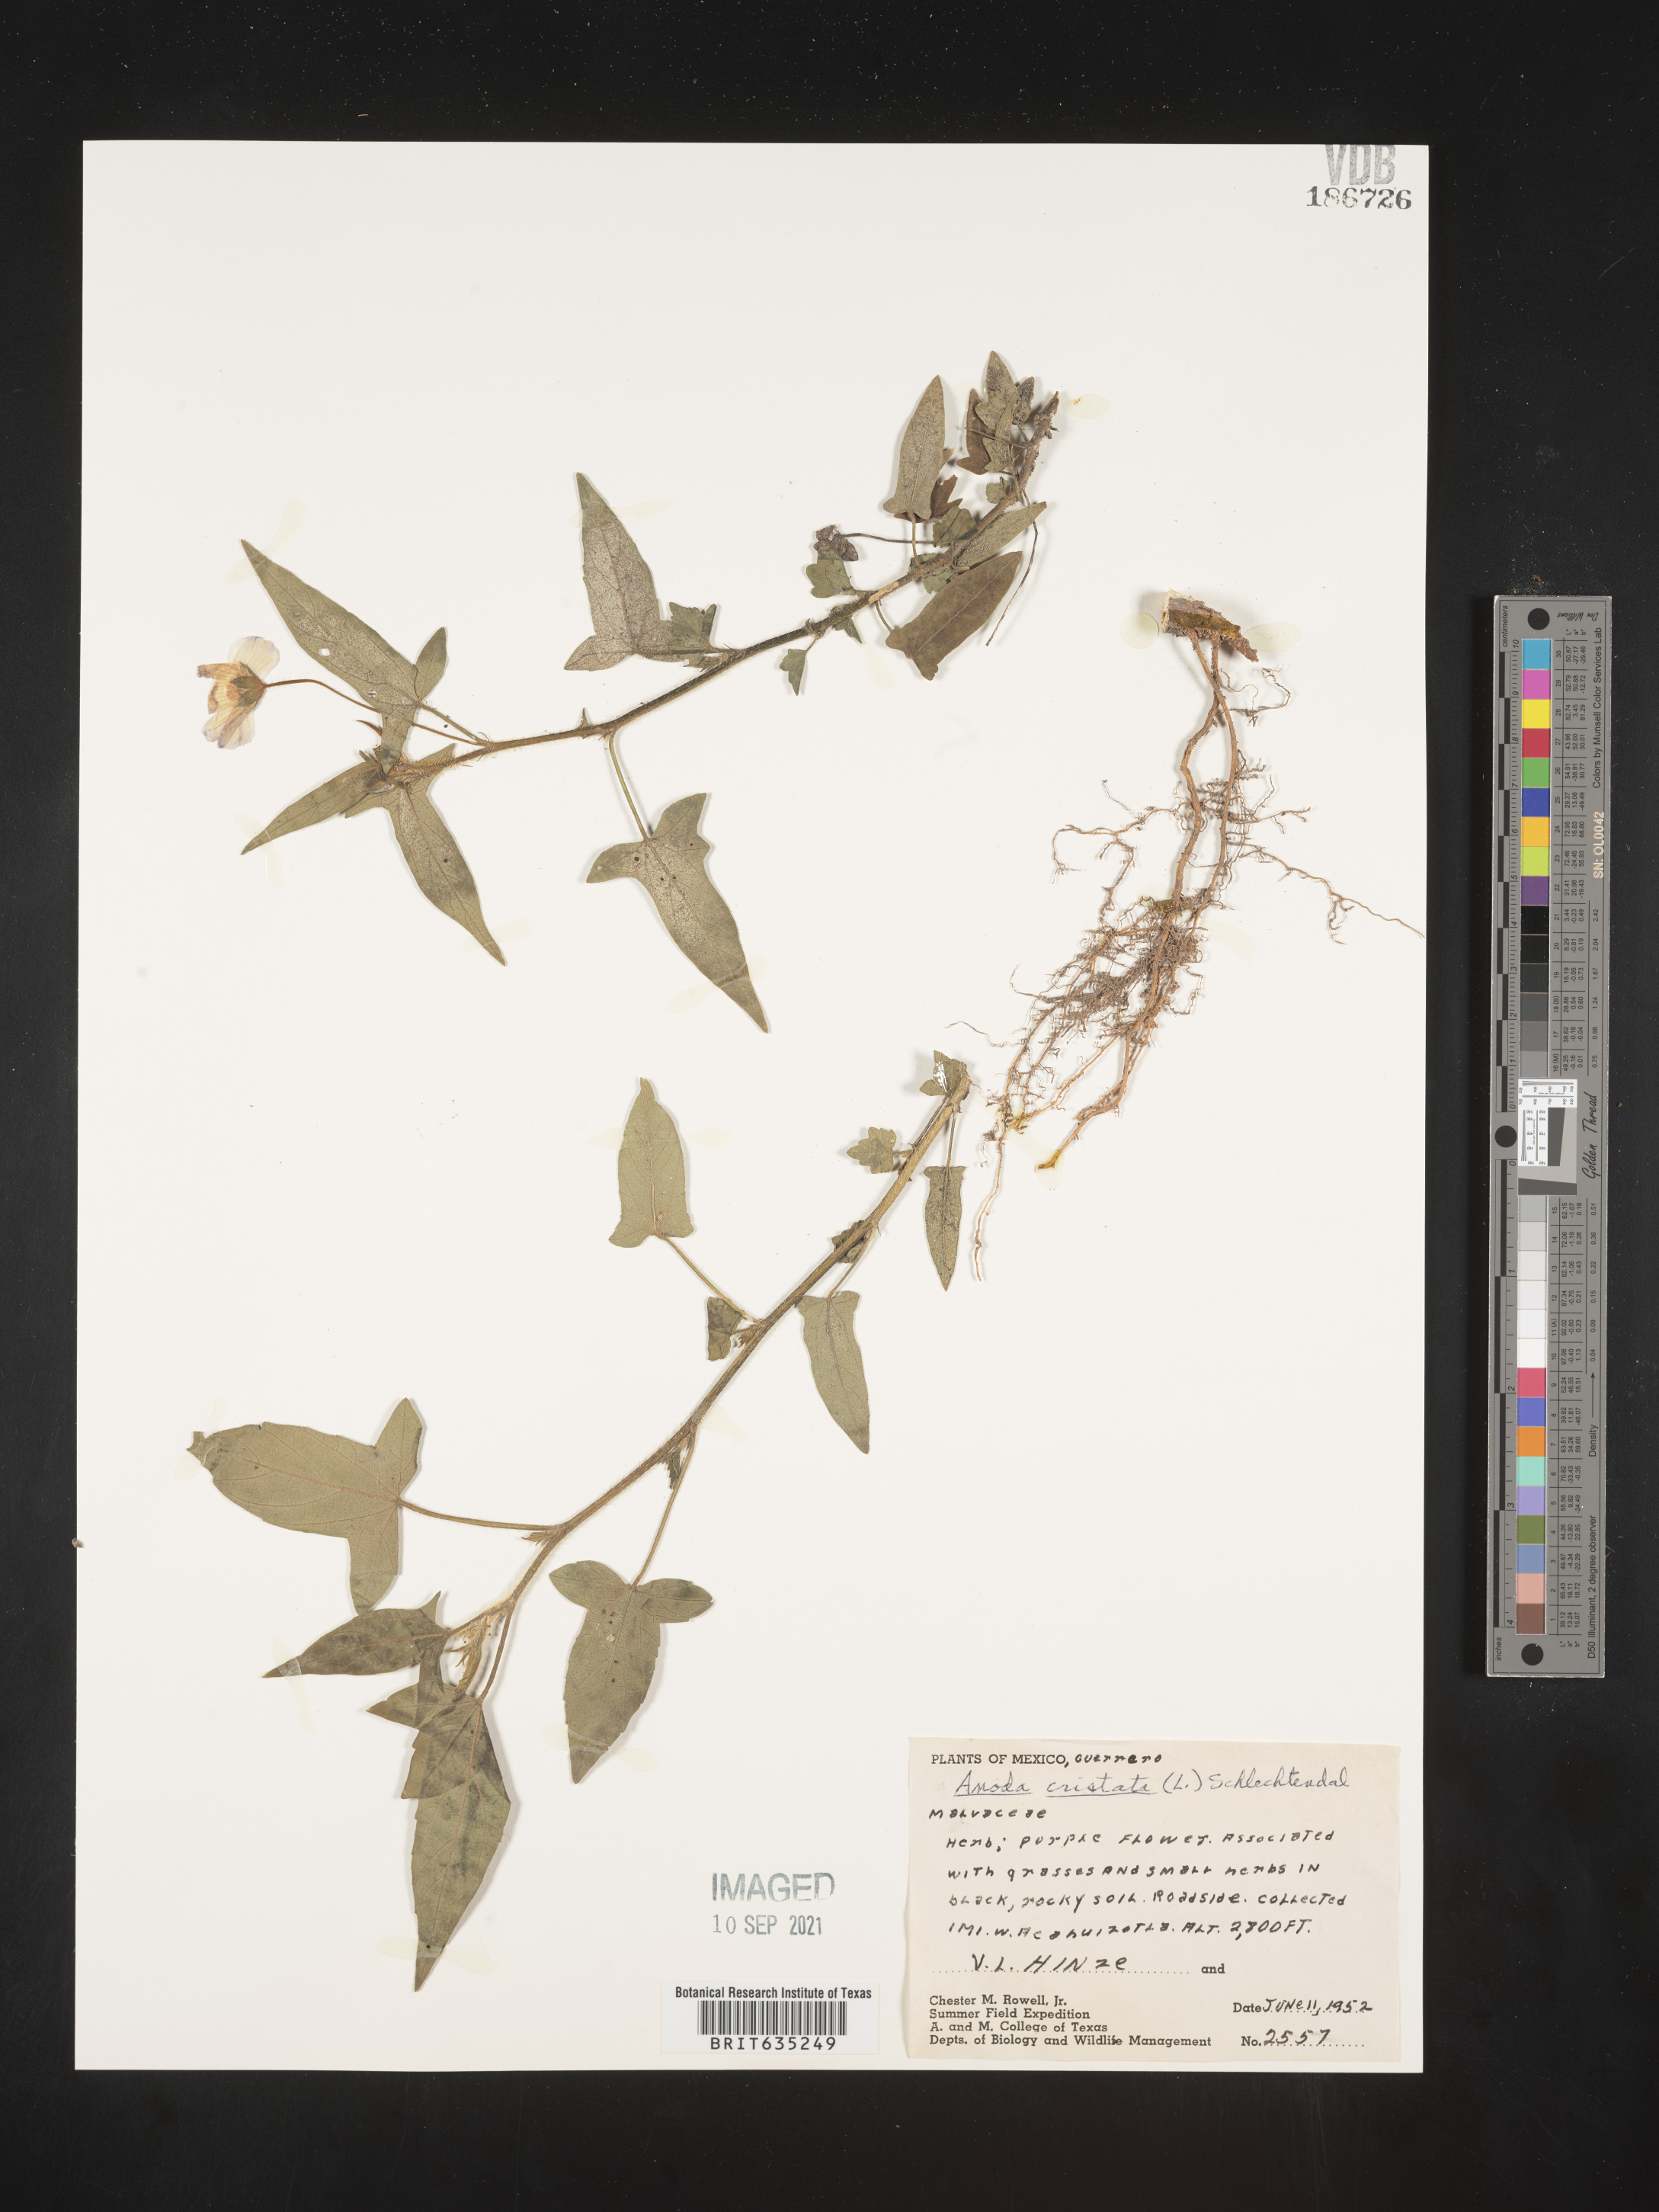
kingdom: Plantae
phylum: Tracheophyta
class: Magnoliopsida
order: Malvales
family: Malvaceae
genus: Anoda
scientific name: Anoda
